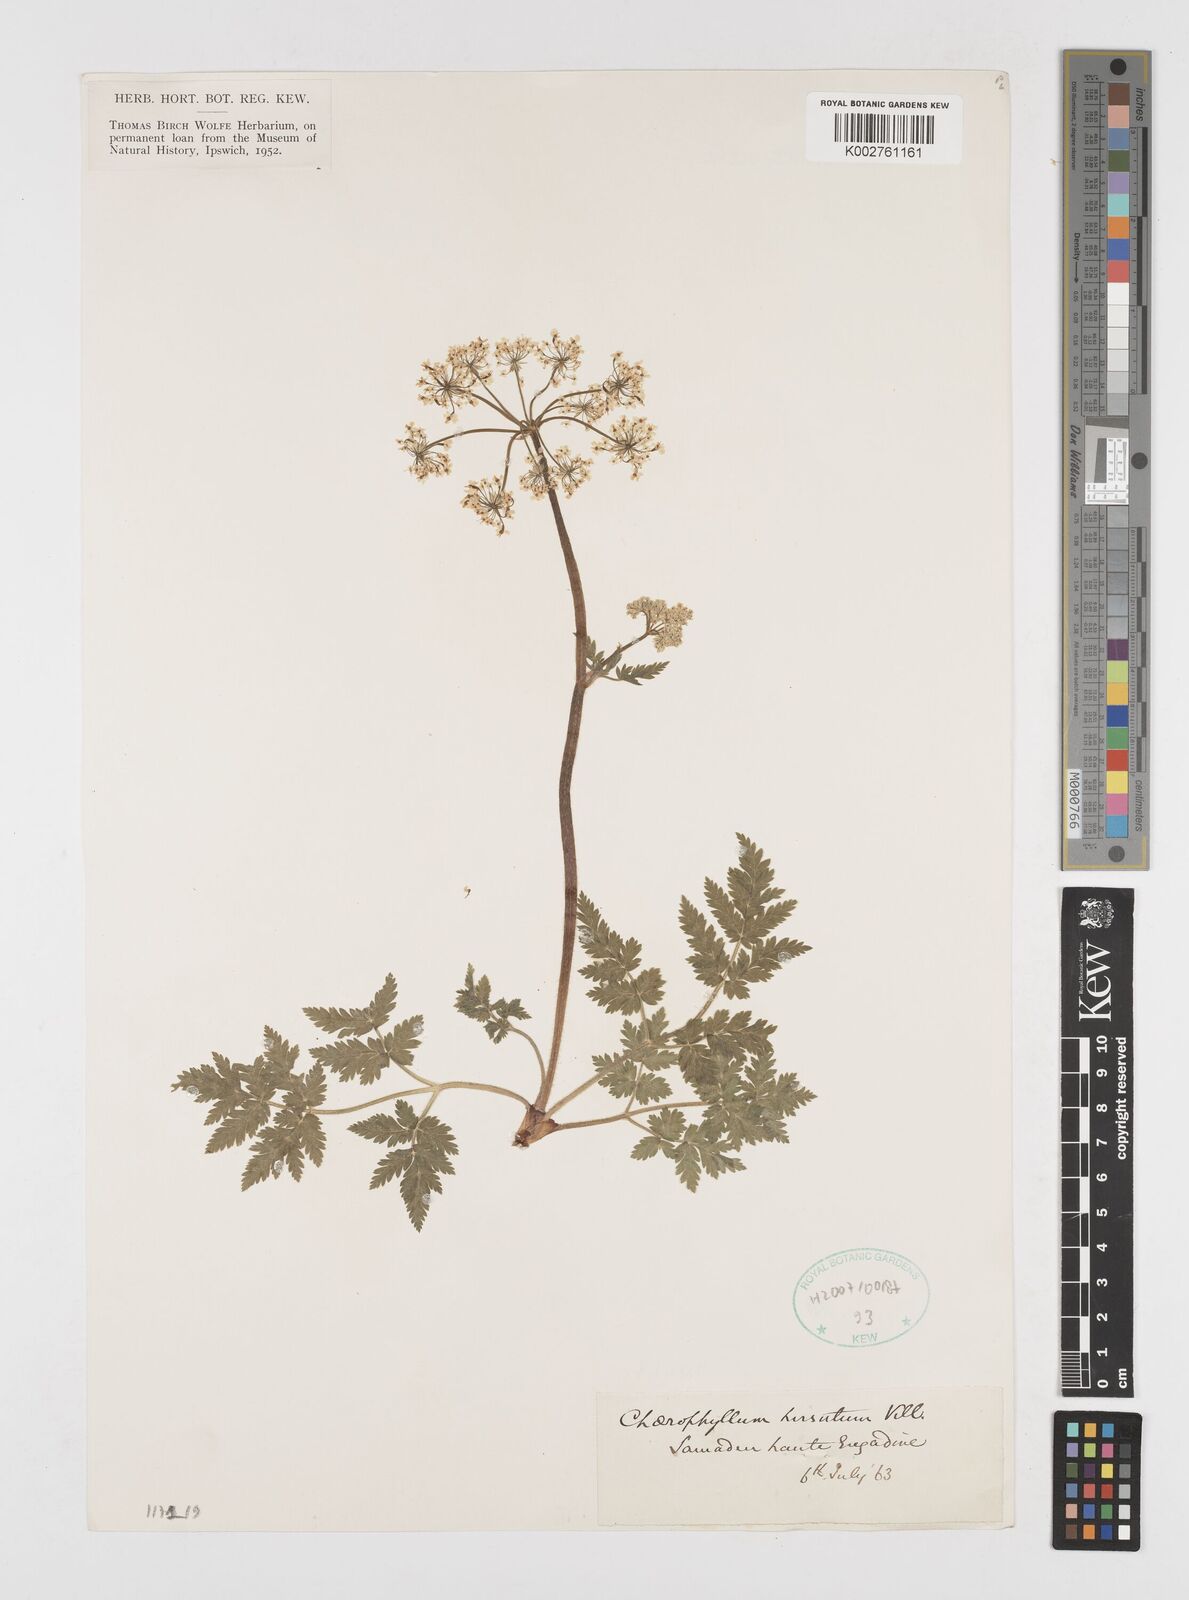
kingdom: Plantae
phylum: Tracheophyta
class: Magnoliopsida
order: Apiales
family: Apiaceae
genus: Chaerophyllum
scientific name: Chaerophyllum hirsutum
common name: Hairy chervil
